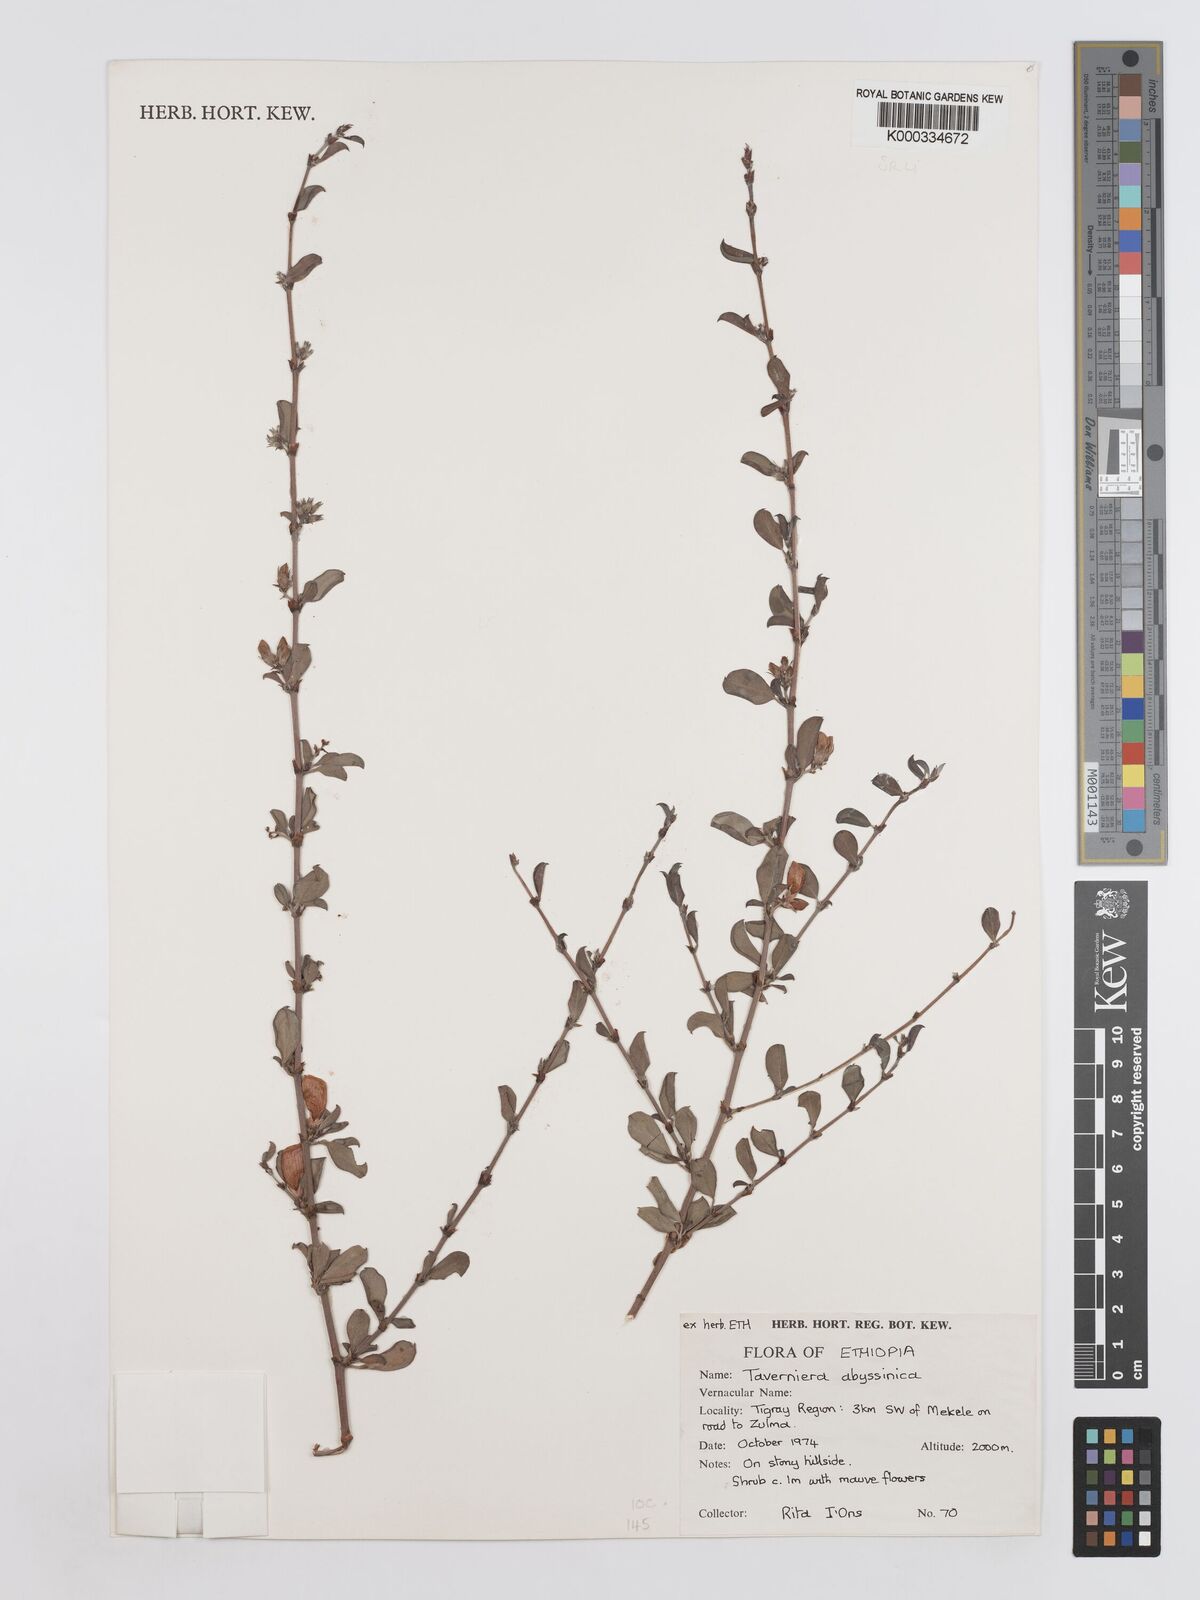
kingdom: Plantae
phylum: Tracheophyta
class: Magnoliopsida
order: Fabales
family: Fabaceae
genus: Taverniera
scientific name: Taverniera abyssinica
